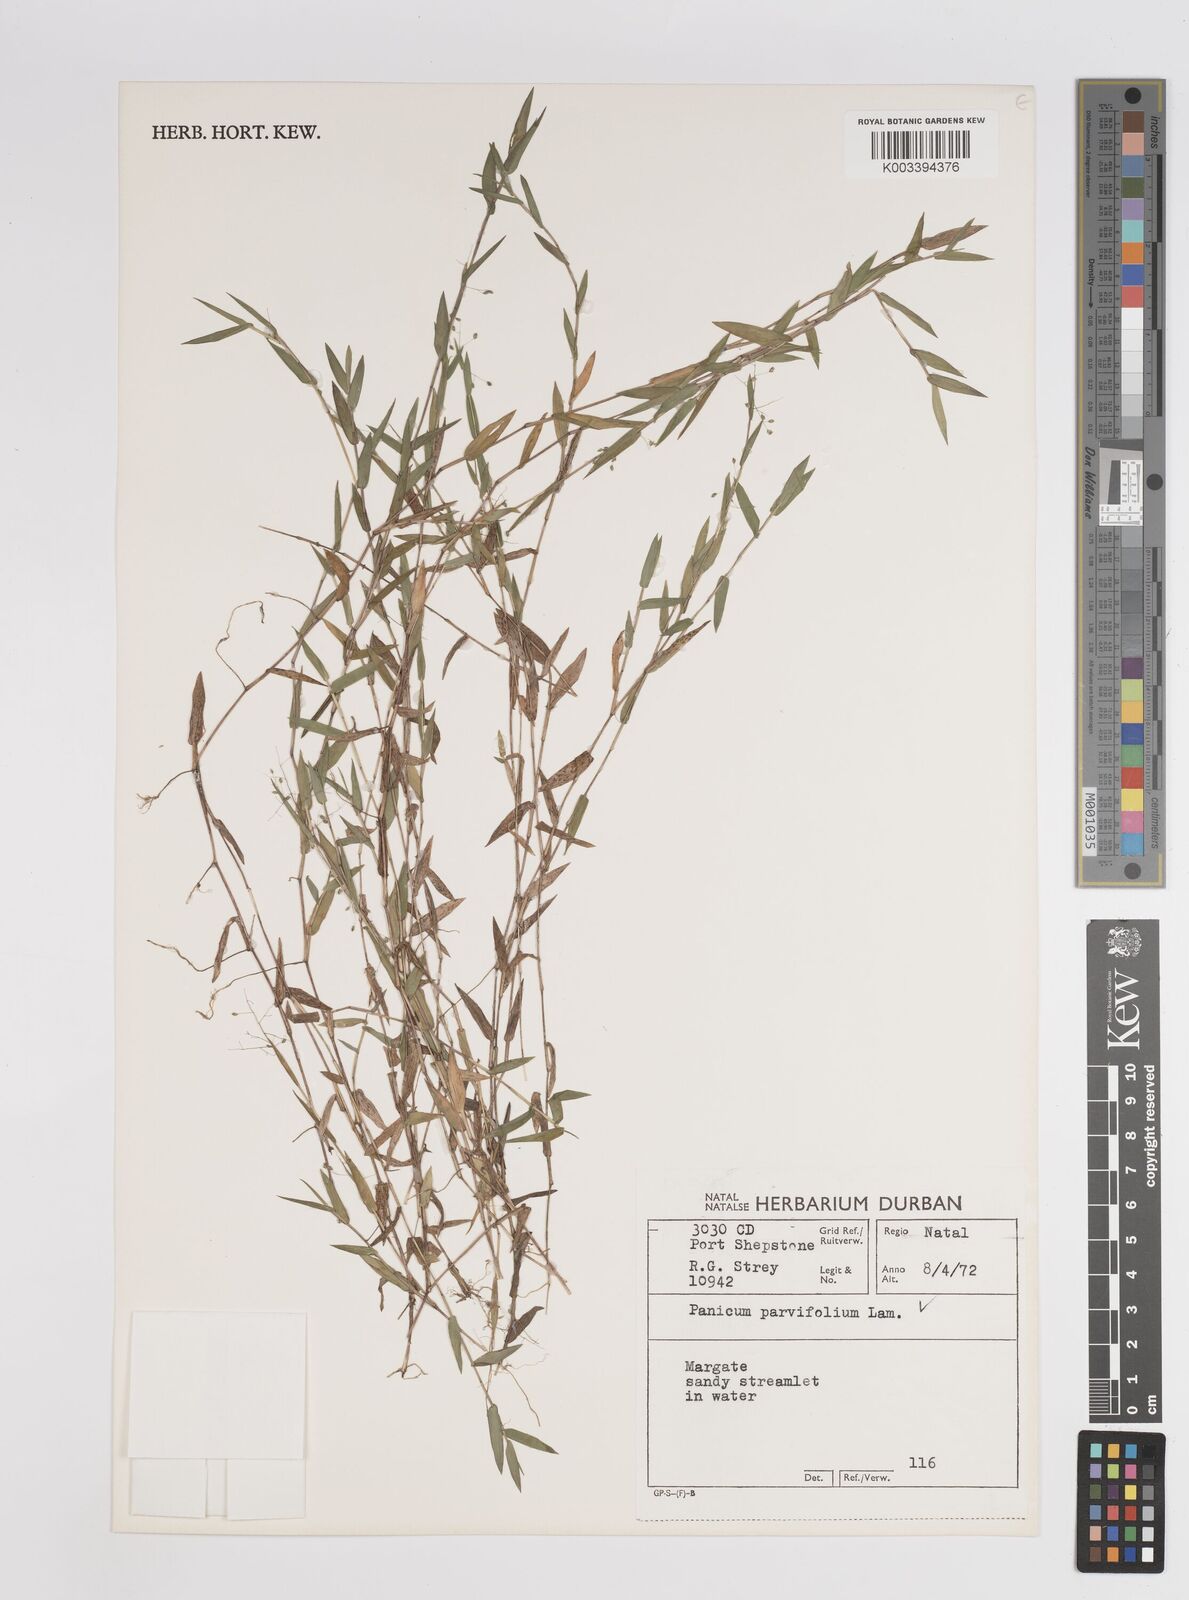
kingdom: Plantae
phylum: Tracheophyta
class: Liliopsida
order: Poales
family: Poaceae
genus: Digitaria
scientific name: Digitaria parviflora
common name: Small-flower finger grass
